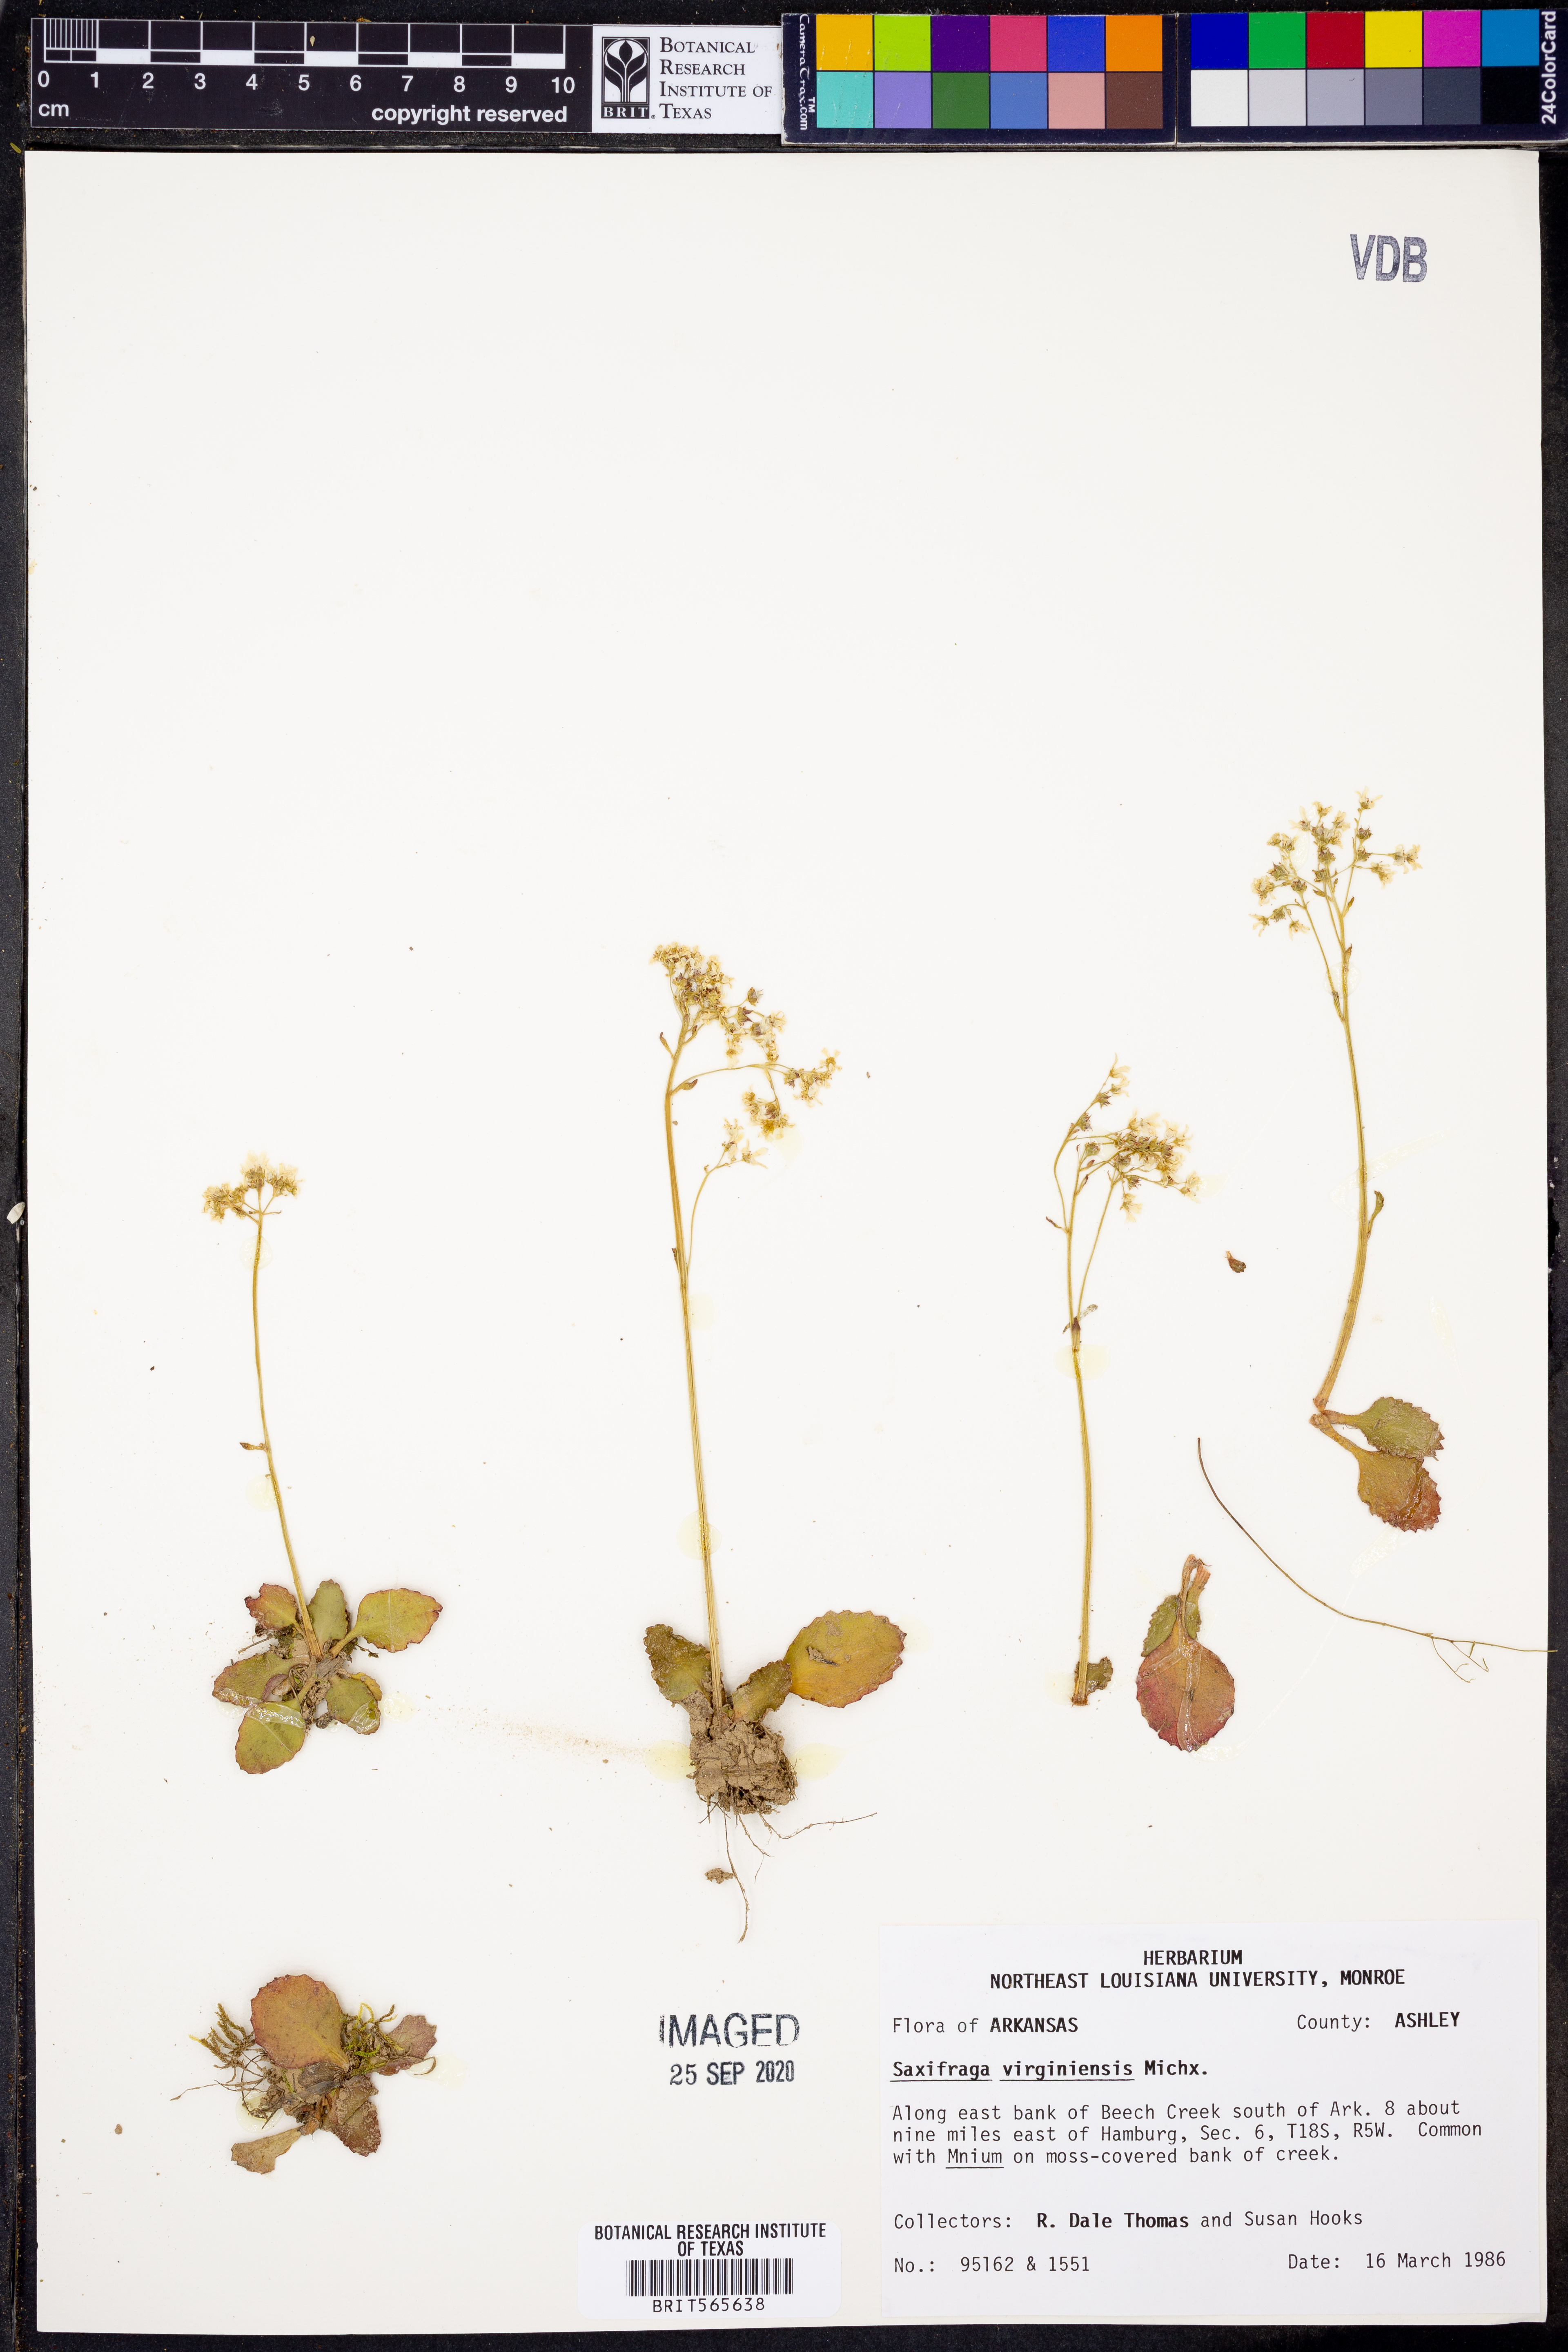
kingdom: Plantae
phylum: Tracheophyta
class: Magnoliopsida
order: Saxifragales
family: Saxifragaceae
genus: Micranthes
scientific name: Micranthes virginiensis
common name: Early saxifrage
